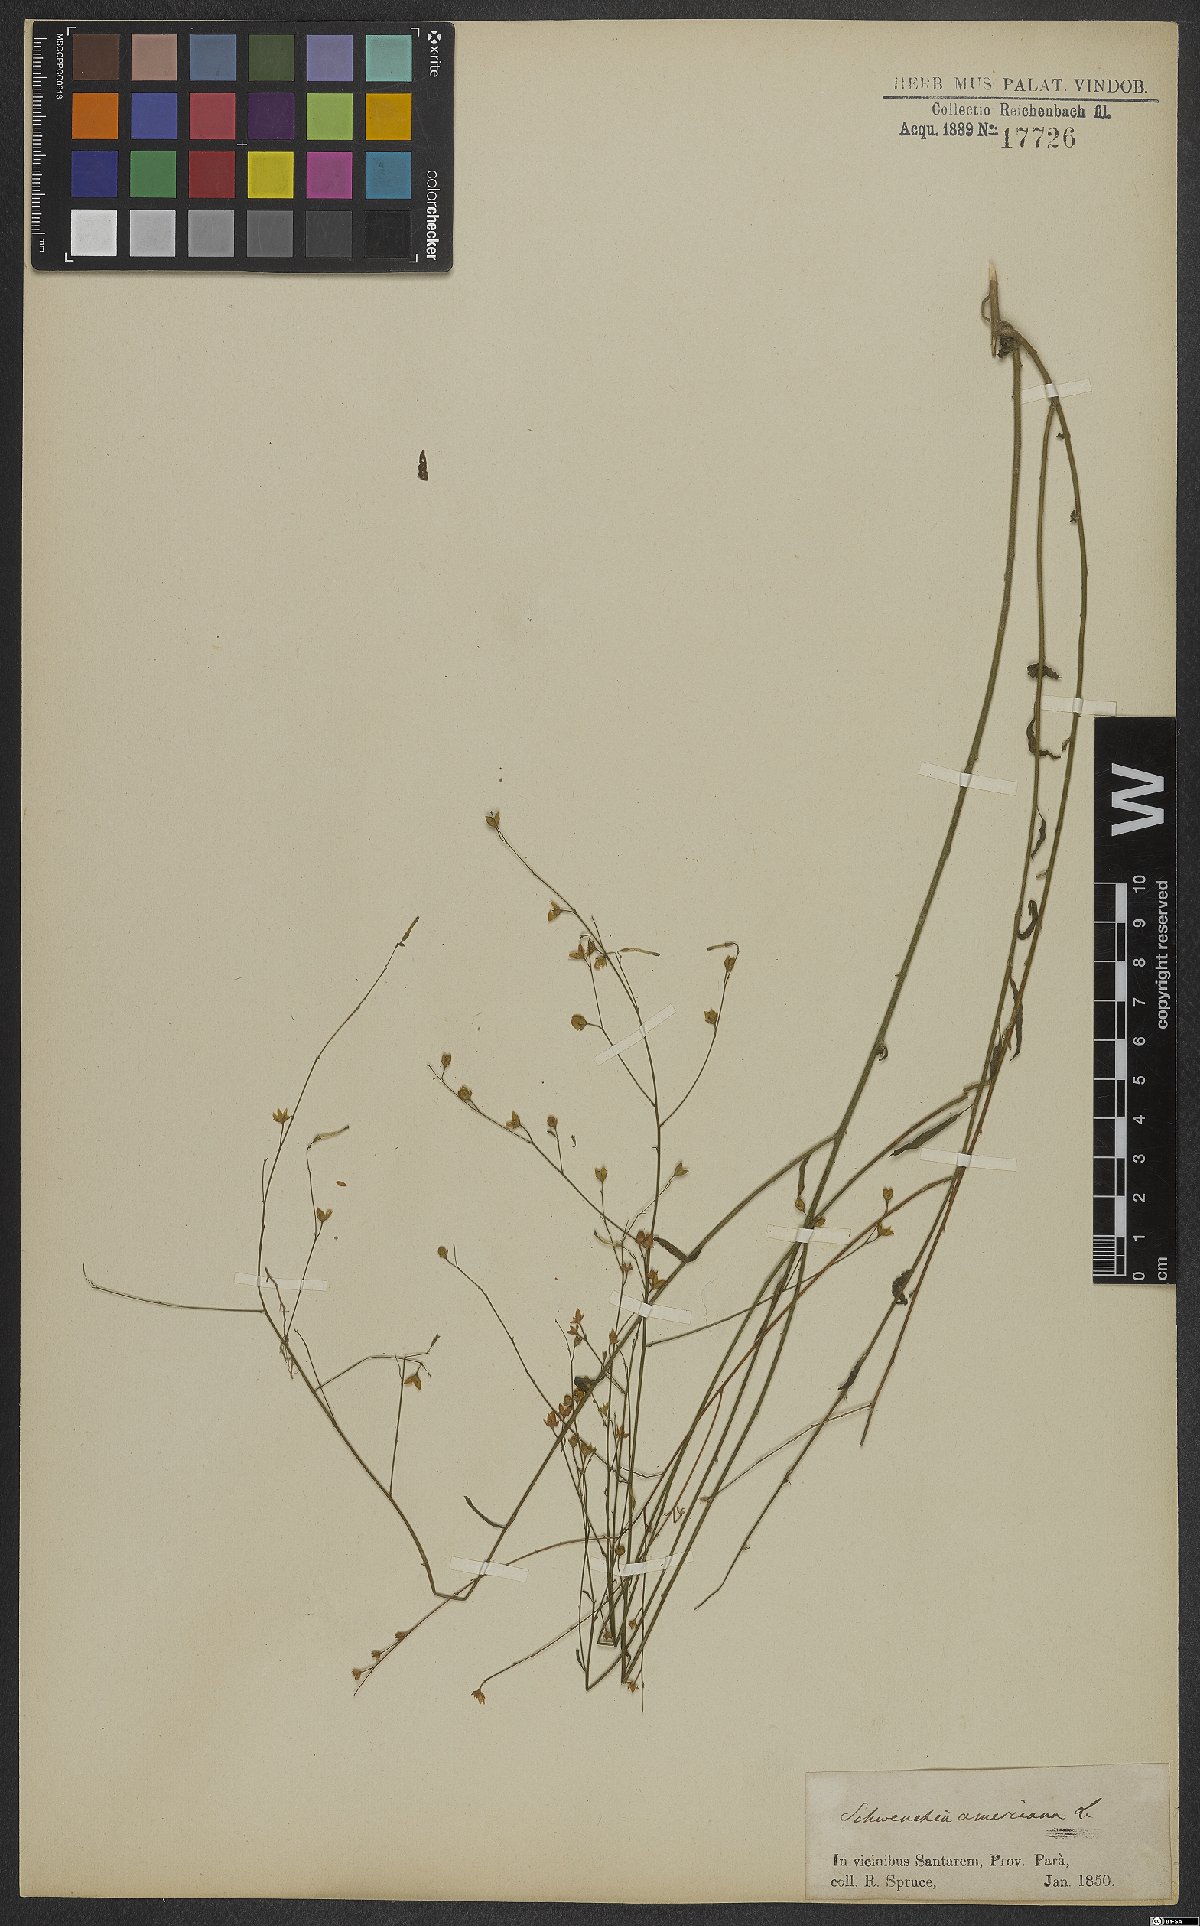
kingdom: Plantae
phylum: Tracheophyta
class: Magnoliopsida
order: Solanales
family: Solanaceae
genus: Schwenckia
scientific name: Schwenckia americana
